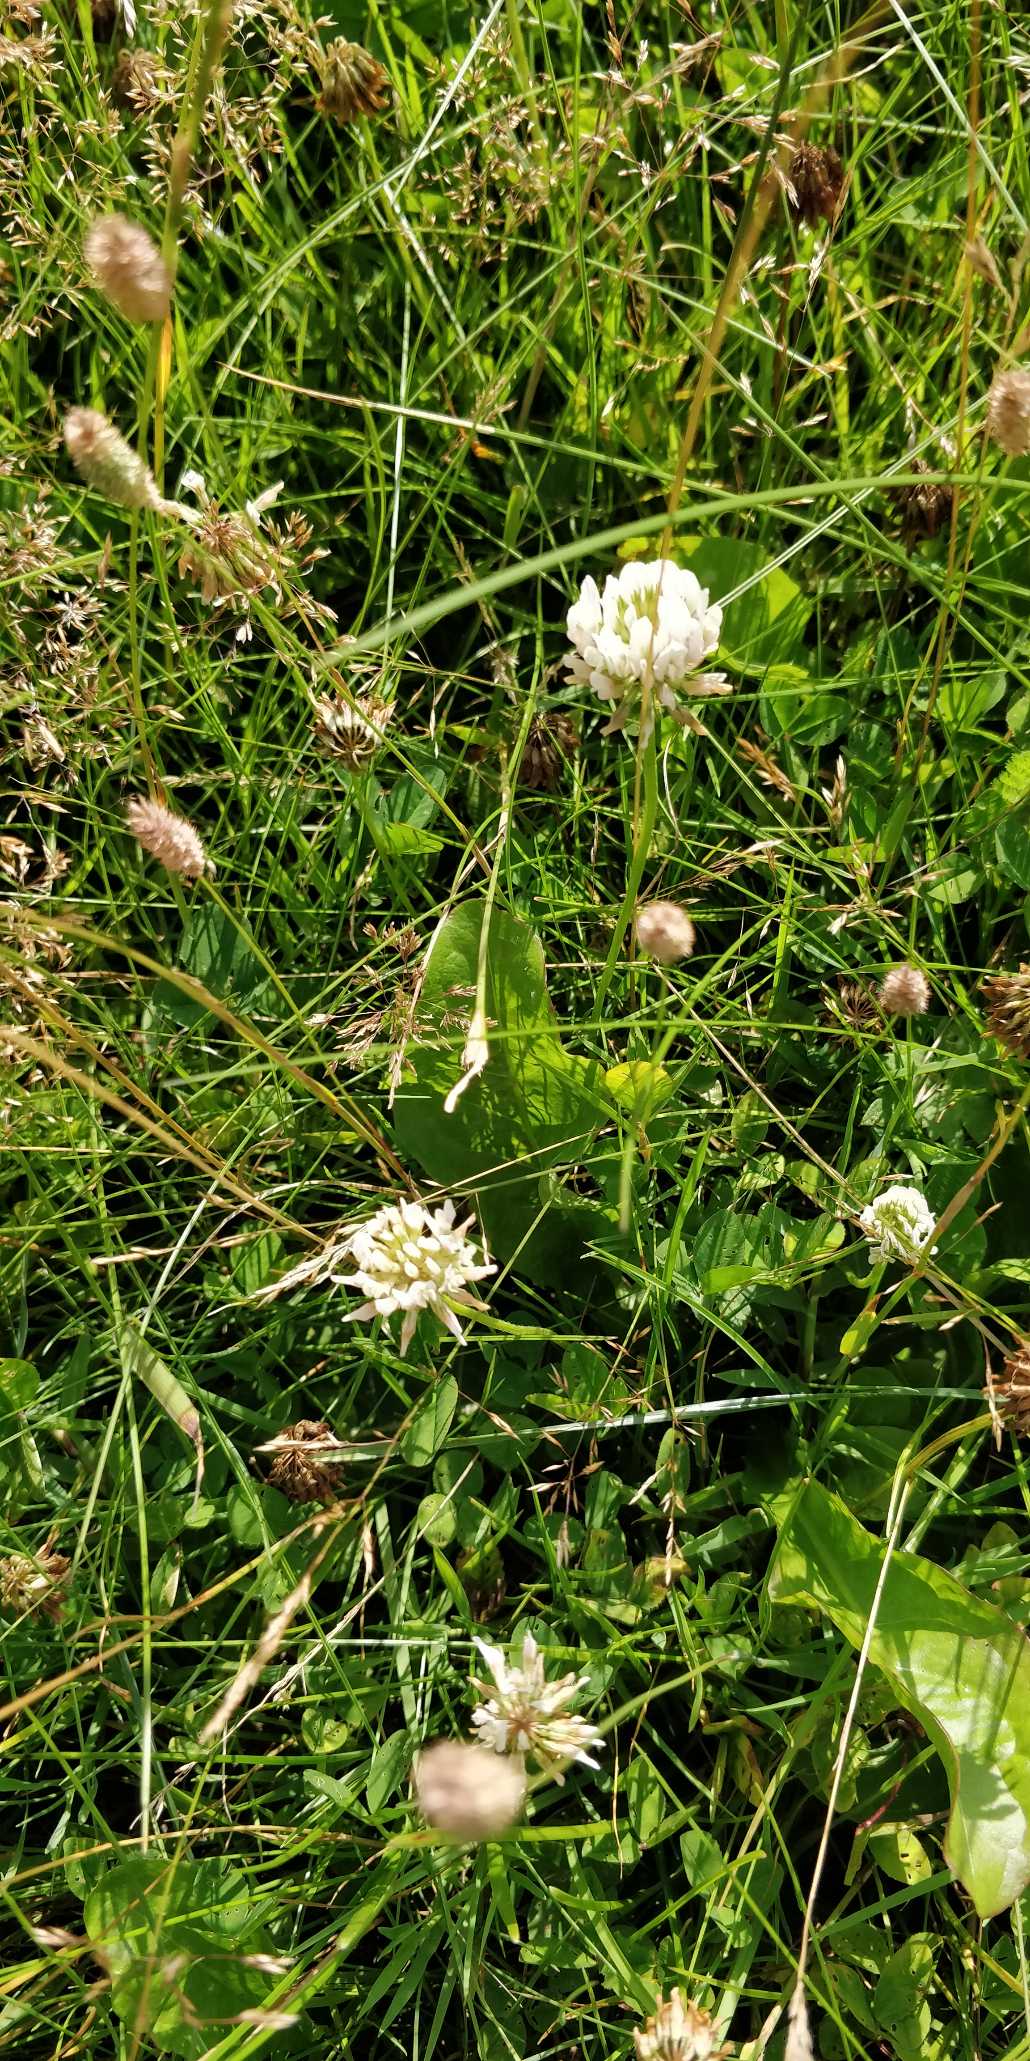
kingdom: Plantae
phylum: Tracheophyta
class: Magnoliopsida
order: Fabales
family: Fabaceae
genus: Trifolium
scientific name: Trifolium repens
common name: Hvid-kløver
